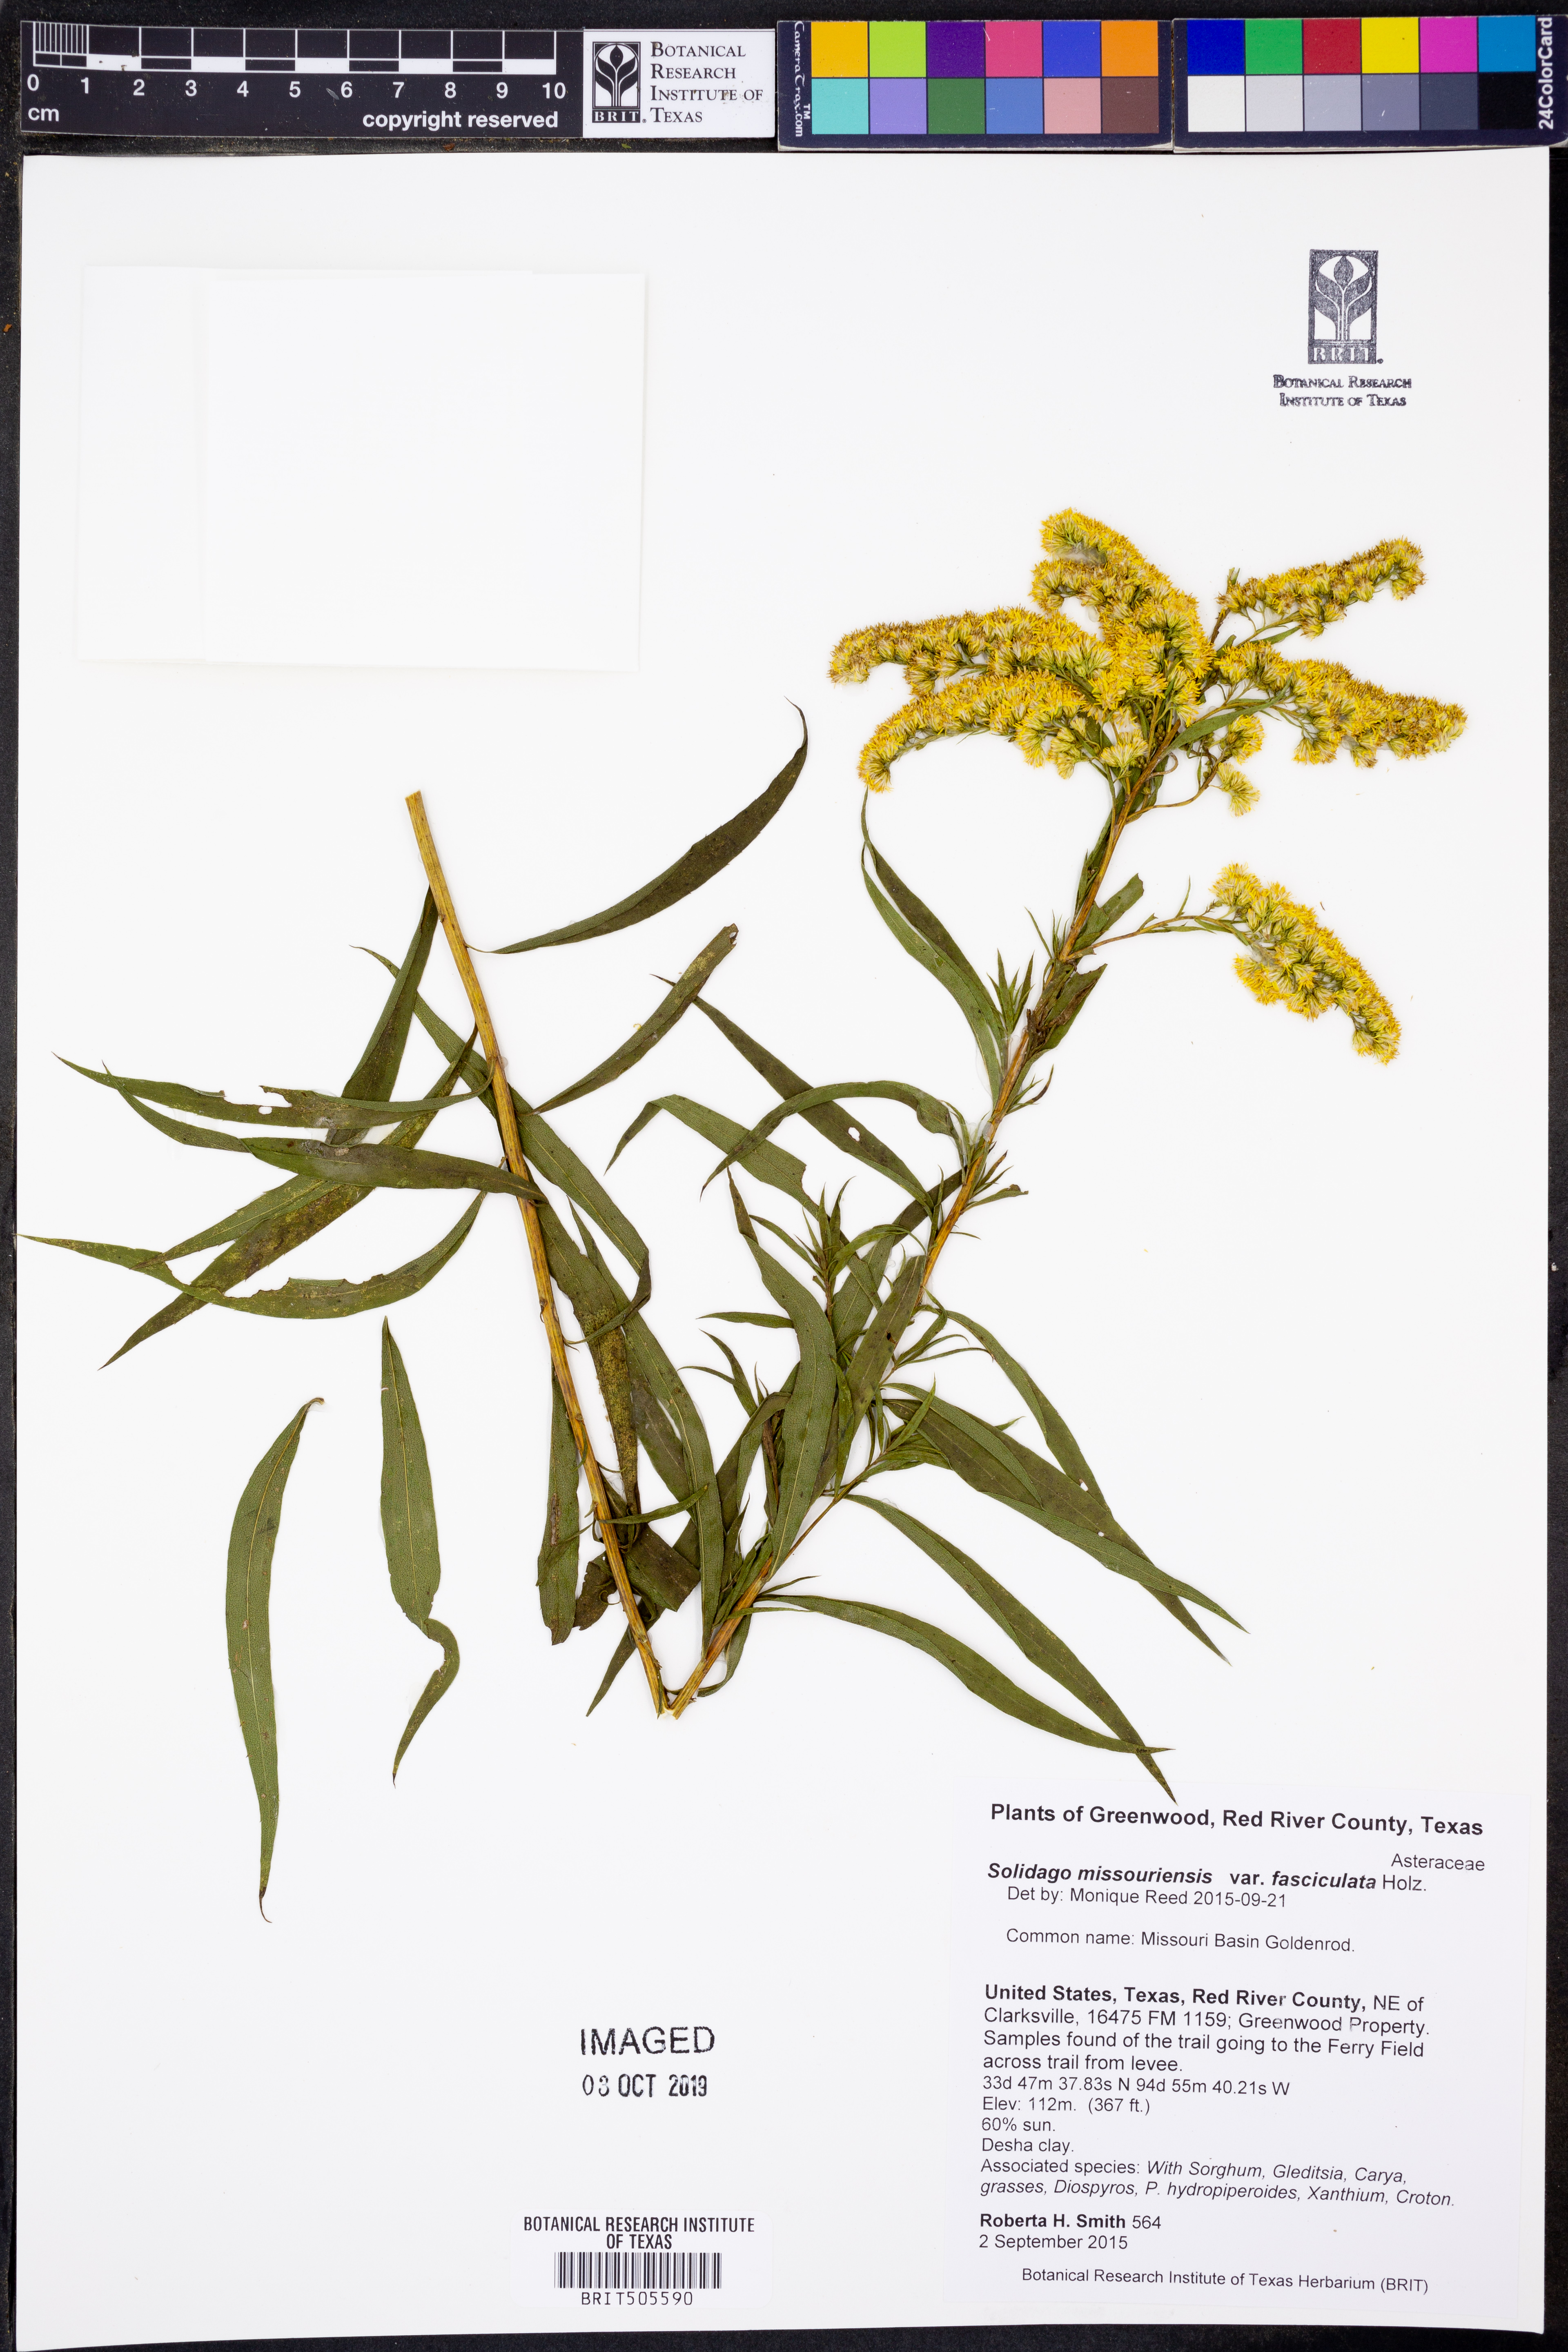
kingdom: Plantae
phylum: Tracheophyta
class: Magnoliopsida
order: Asterales
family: Asteraceae
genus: Solidago
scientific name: Solidago missouriensis
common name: Prairie goldenrod
